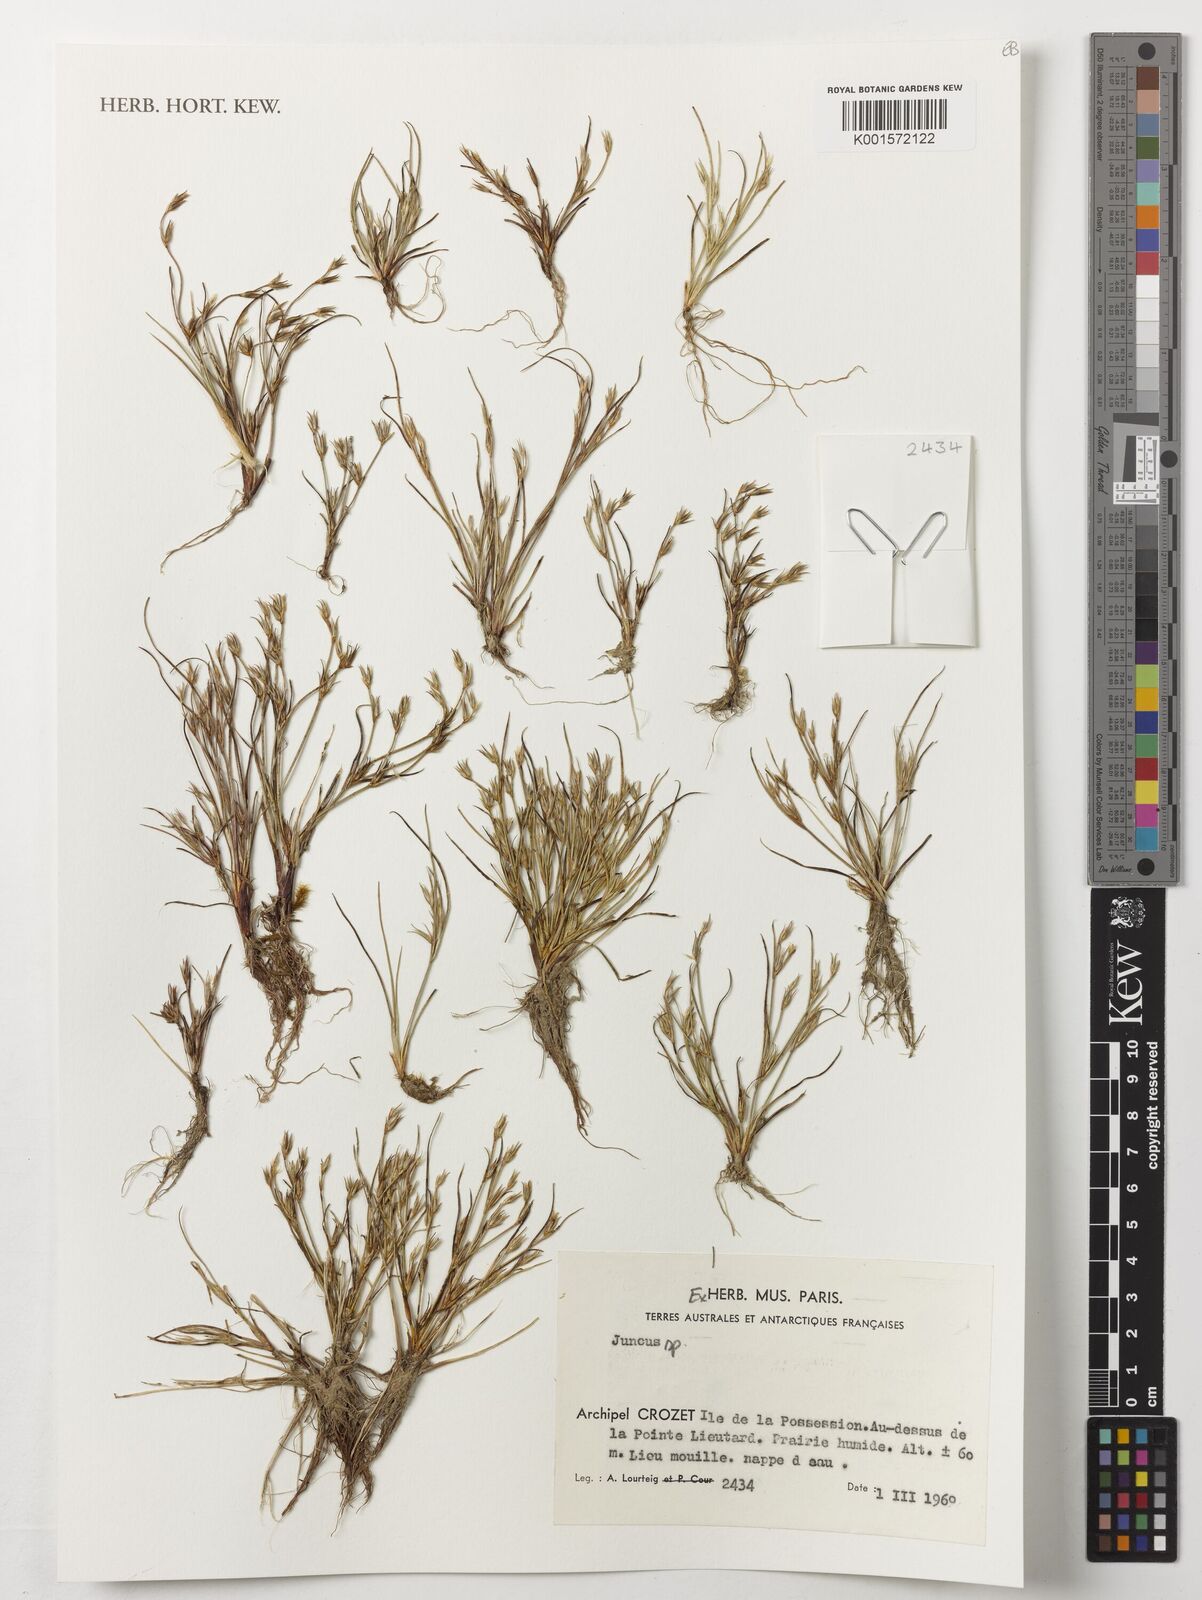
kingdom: Plantae
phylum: Tracheophyta
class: Liliopsida
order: Poales
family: Juncaceae
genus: Juncus
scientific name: Juncus
